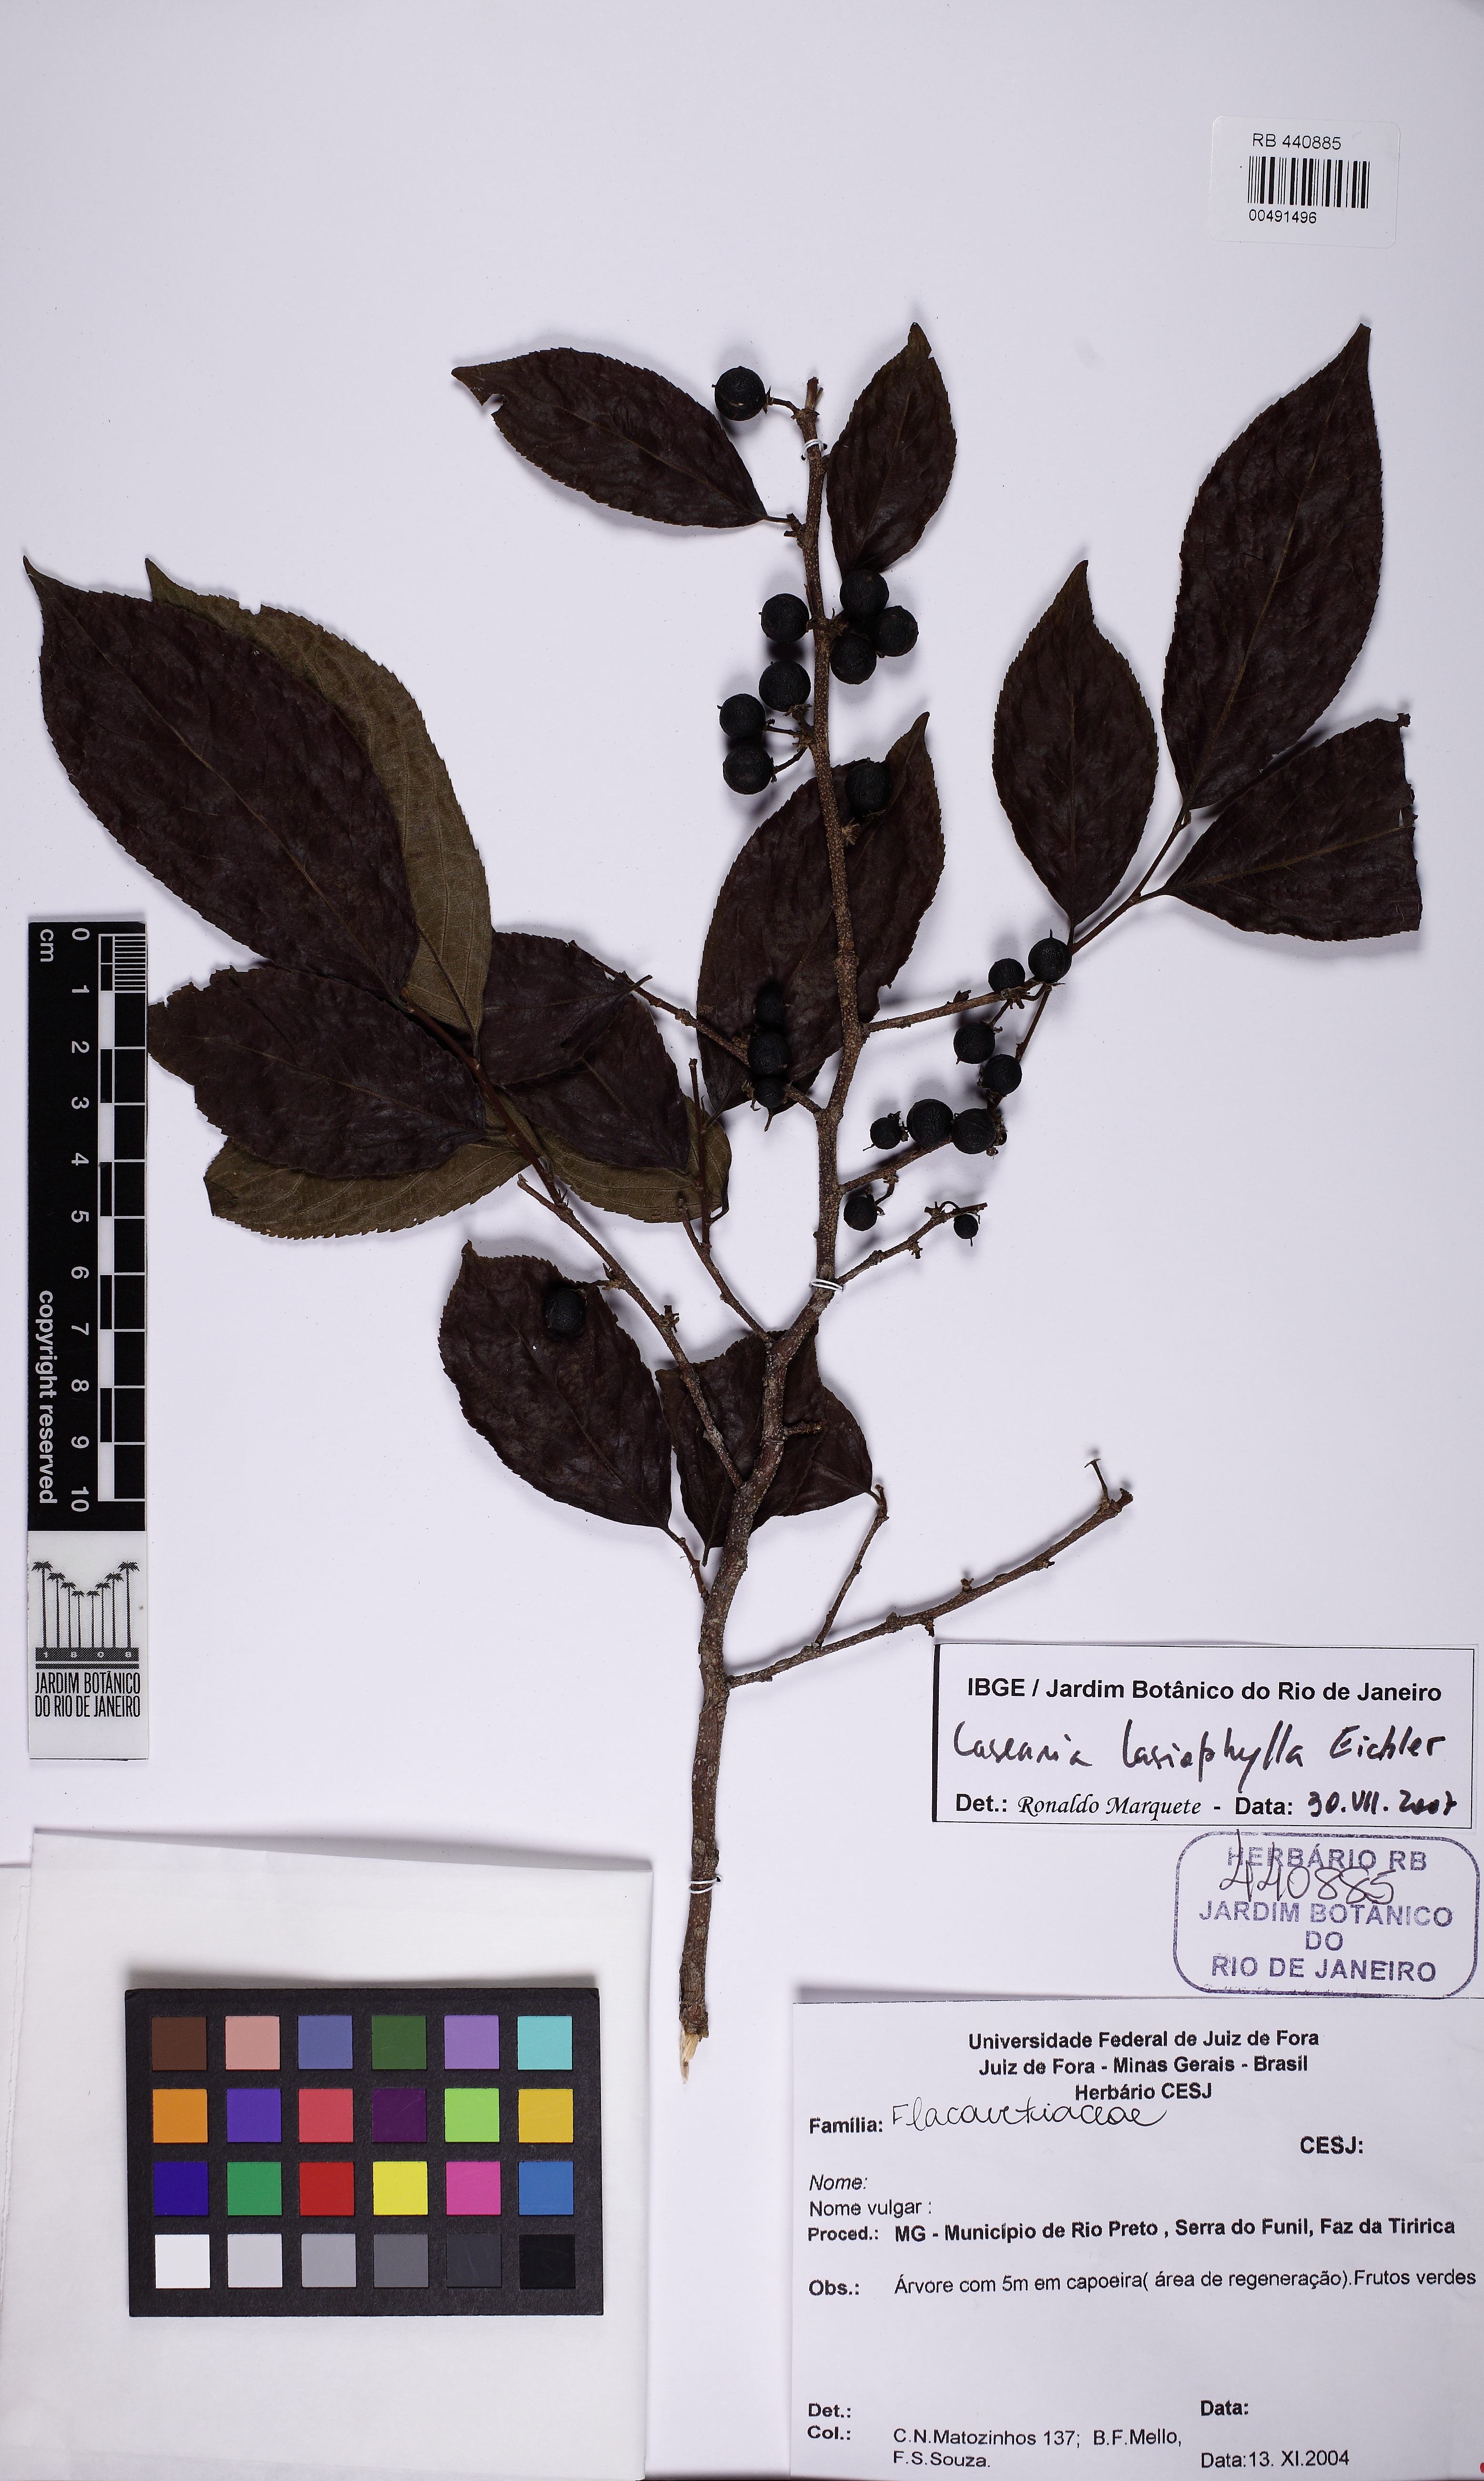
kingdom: Plantae
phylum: Tracheophyta
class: Magnoliopsida
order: Malpighiales
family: Salicaceae
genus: Casearia
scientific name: Casearia lasiophylla
